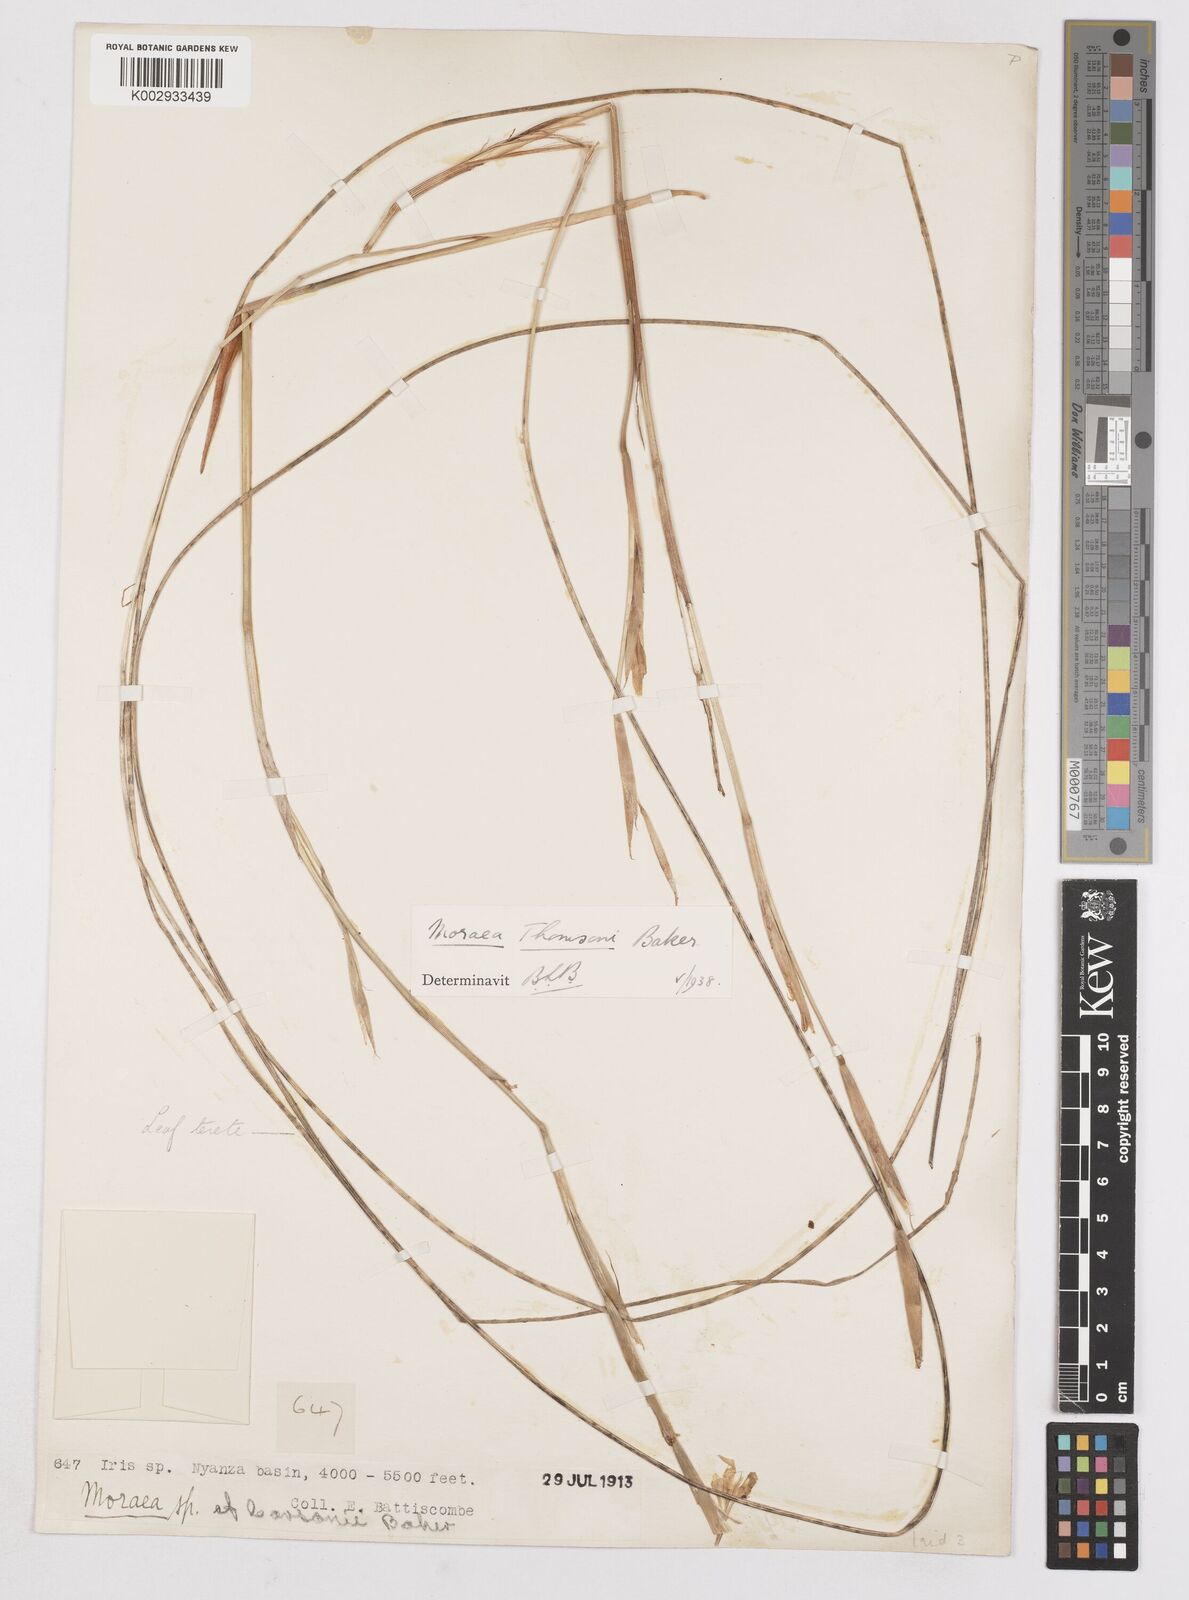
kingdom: Plantae
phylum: Tracheophyta
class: Liliopsida
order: Asparagales
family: Iridaceae
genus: Moraea
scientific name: Moraea stricta
